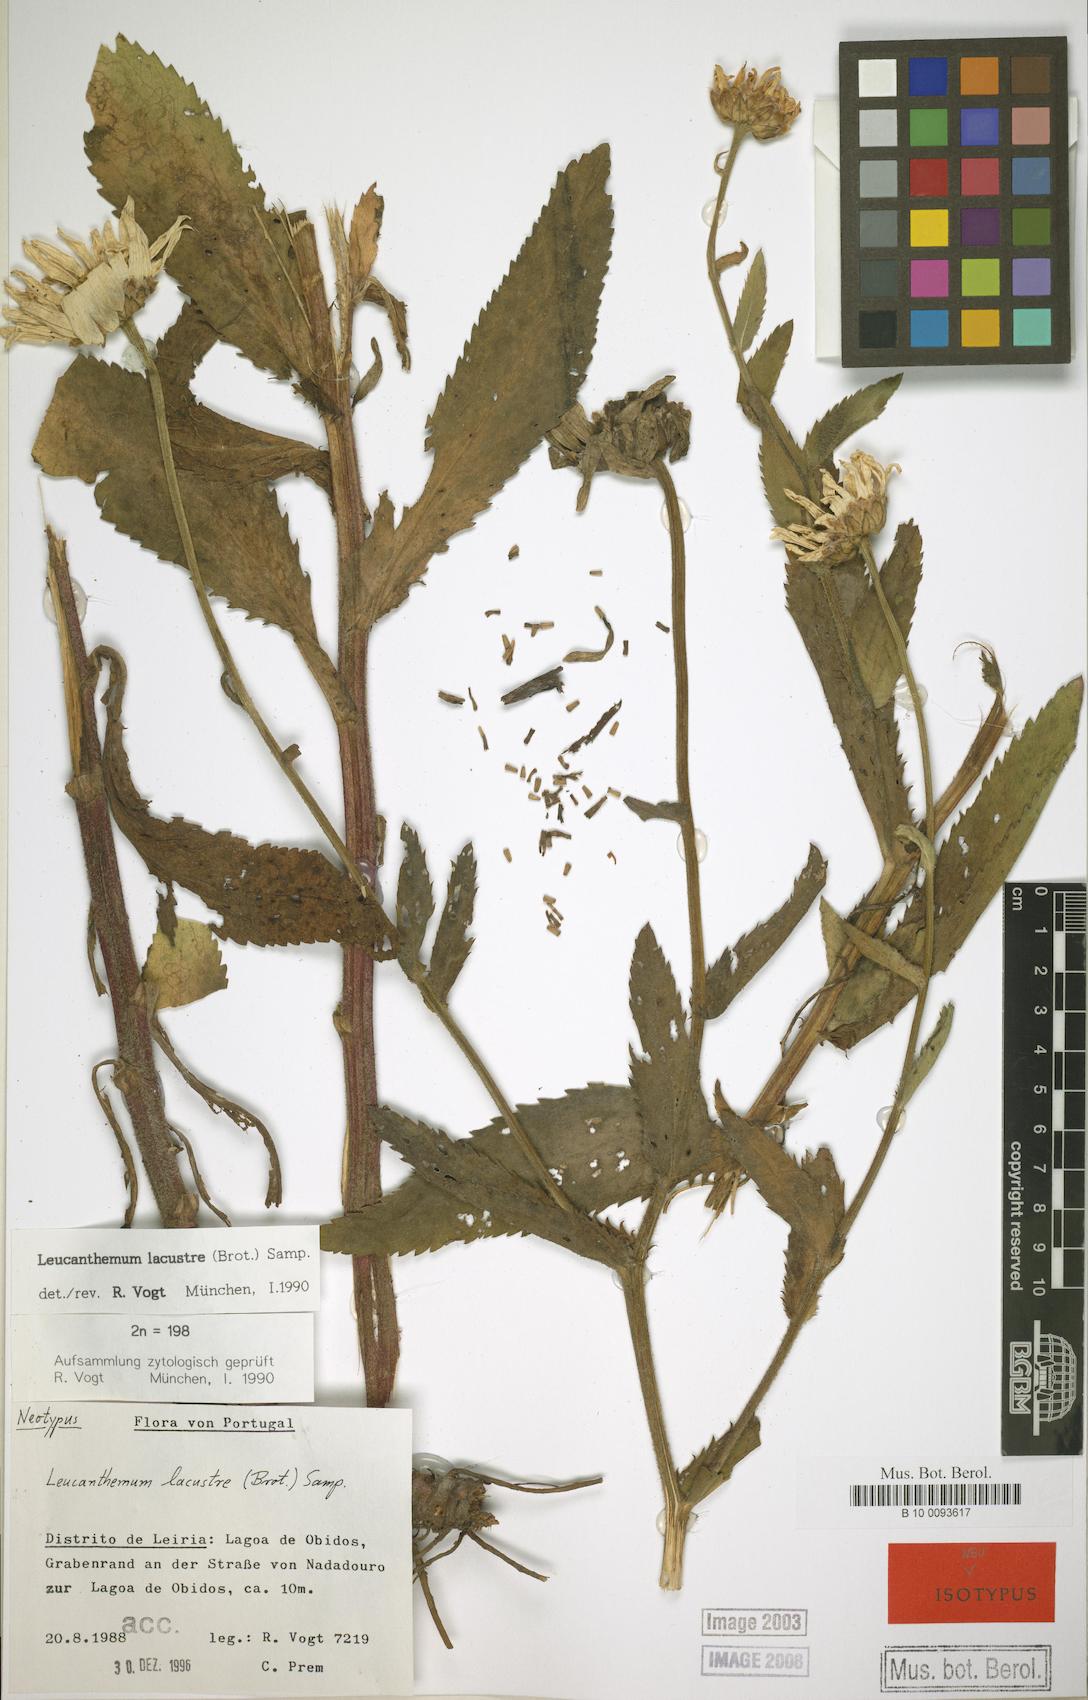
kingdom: Plantae
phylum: Tracheophyta
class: Magnoliopsida
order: Asterales
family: Asteraceae
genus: Leucanthemum
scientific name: Leucanthemum lacustre
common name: Portuguese daisy
